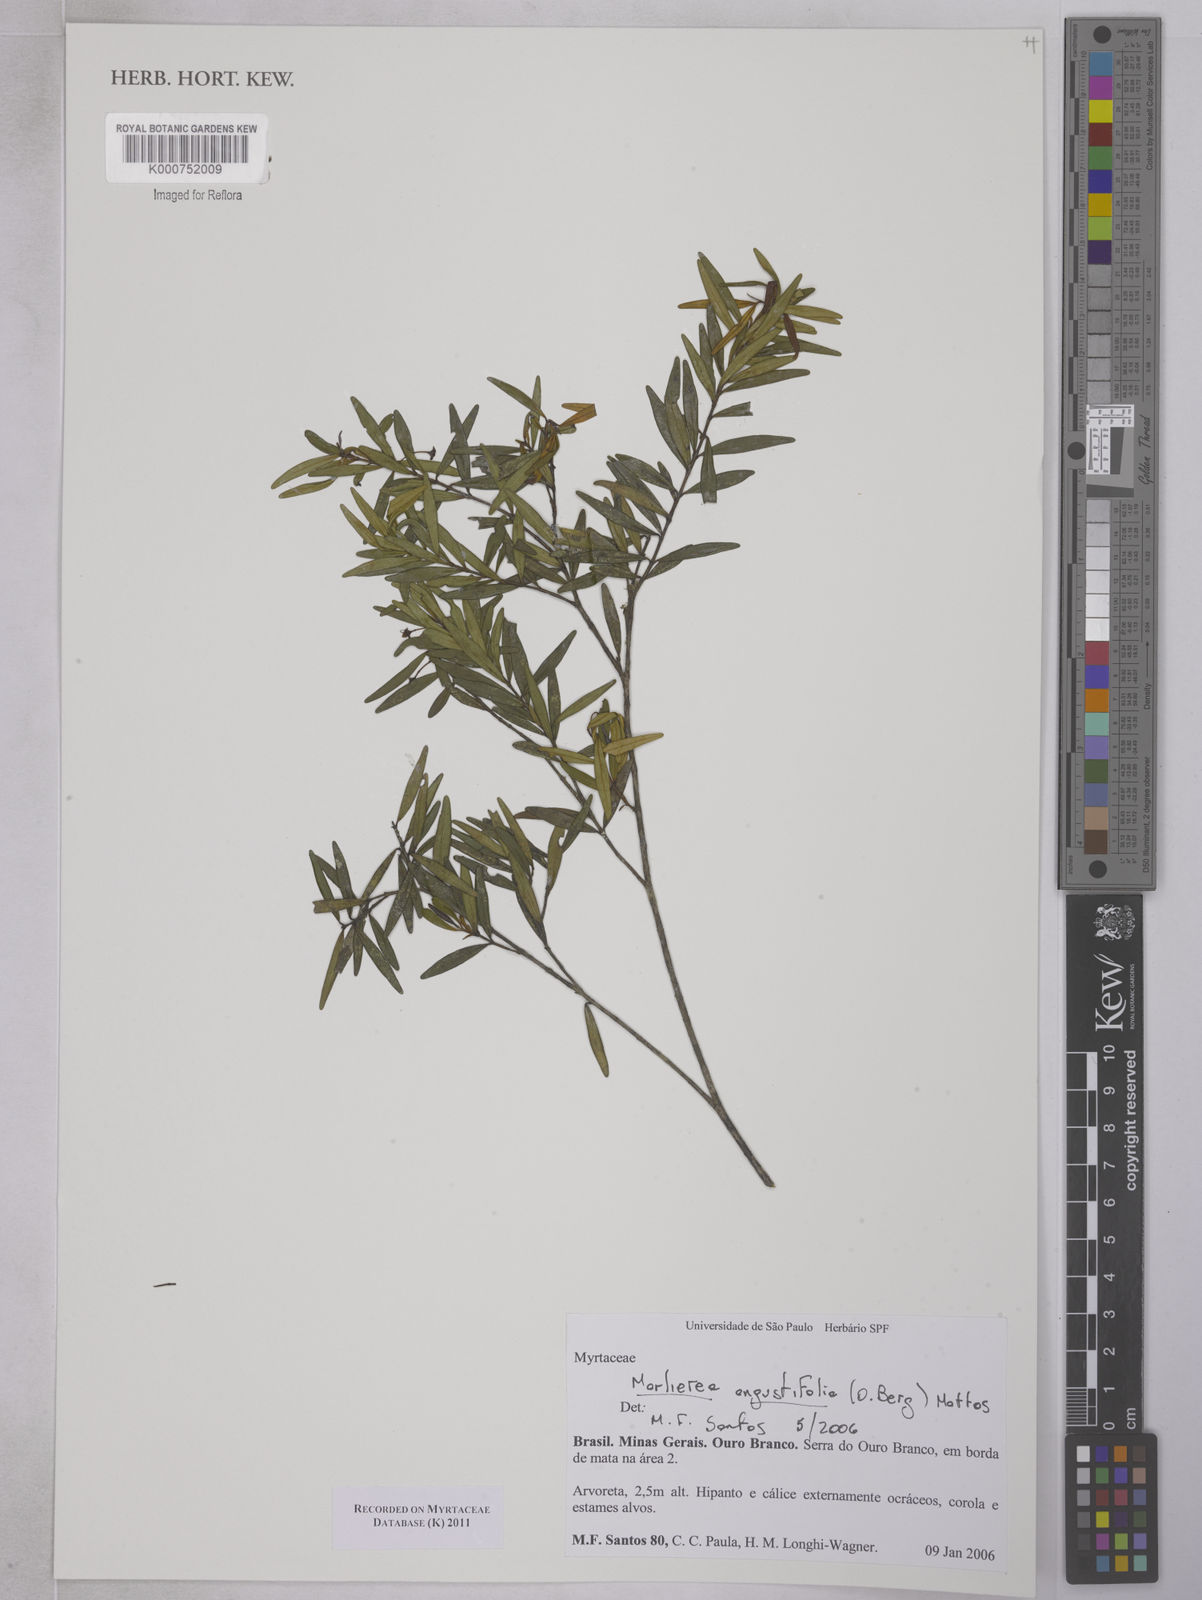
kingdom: Plantae
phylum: Tracheophyta
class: Magnoliopsida
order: Myrtales
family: Myrtaceae
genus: Myrcia
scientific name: Myrcia lenheirensis
